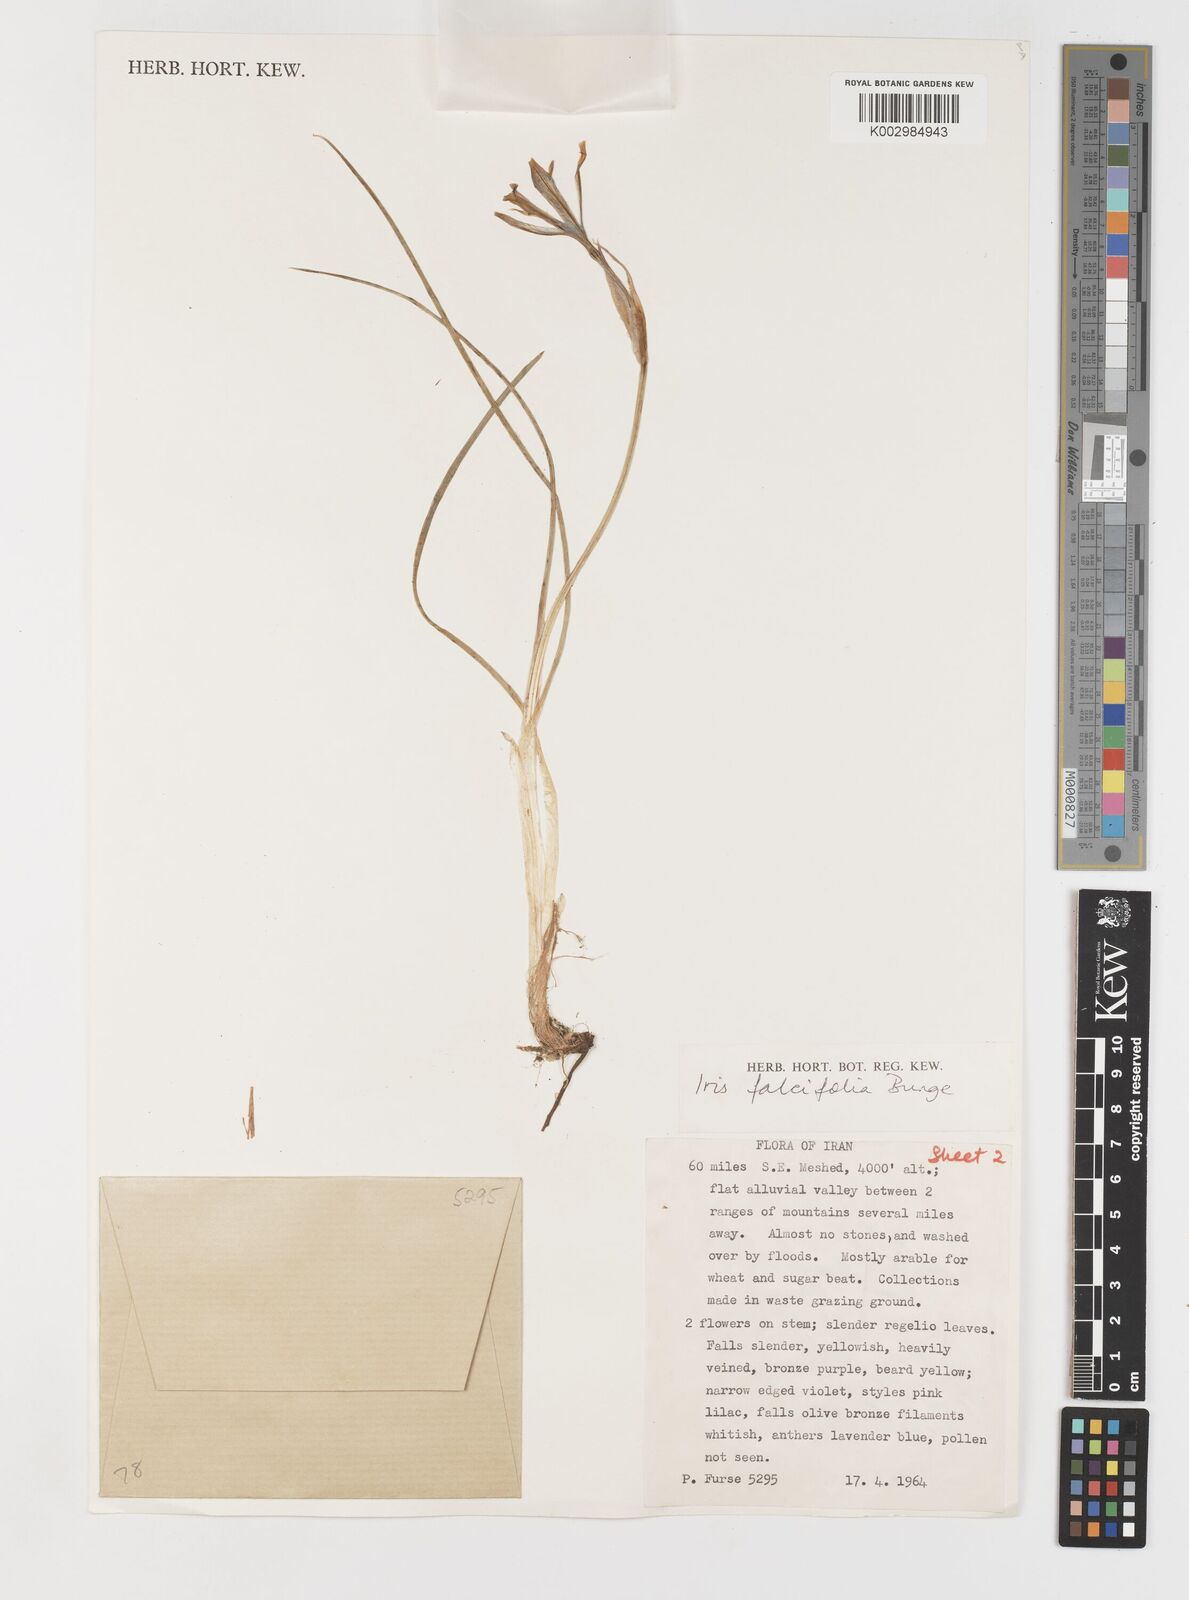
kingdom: Plantae
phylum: Tracheophyta
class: Liliopsida
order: Asparagales
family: Iridaceae
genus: Iris
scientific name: Iris longiscapa
